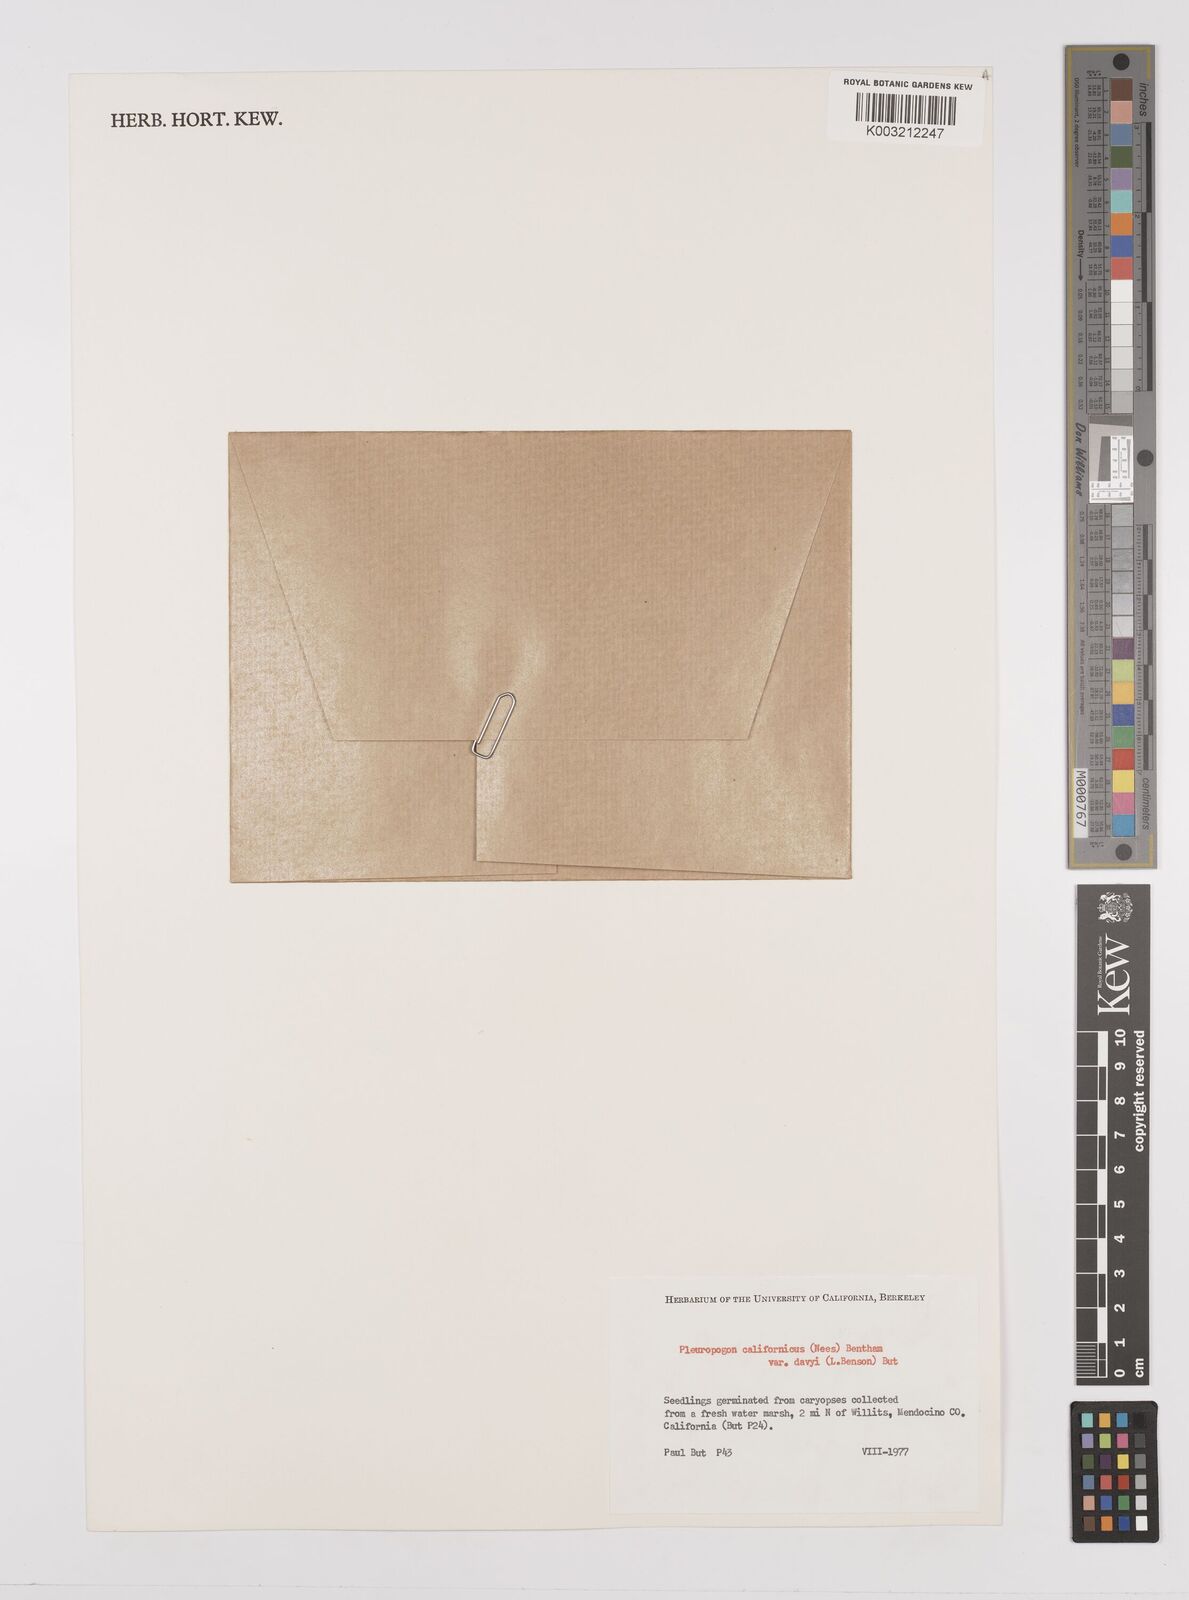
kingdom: Plantae
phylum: Tracheophyta
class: Liliopsida
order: Poales
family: Poaceae
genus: Pleuropogon
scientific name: Pleuropogon californicus
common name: California semaphore grass
